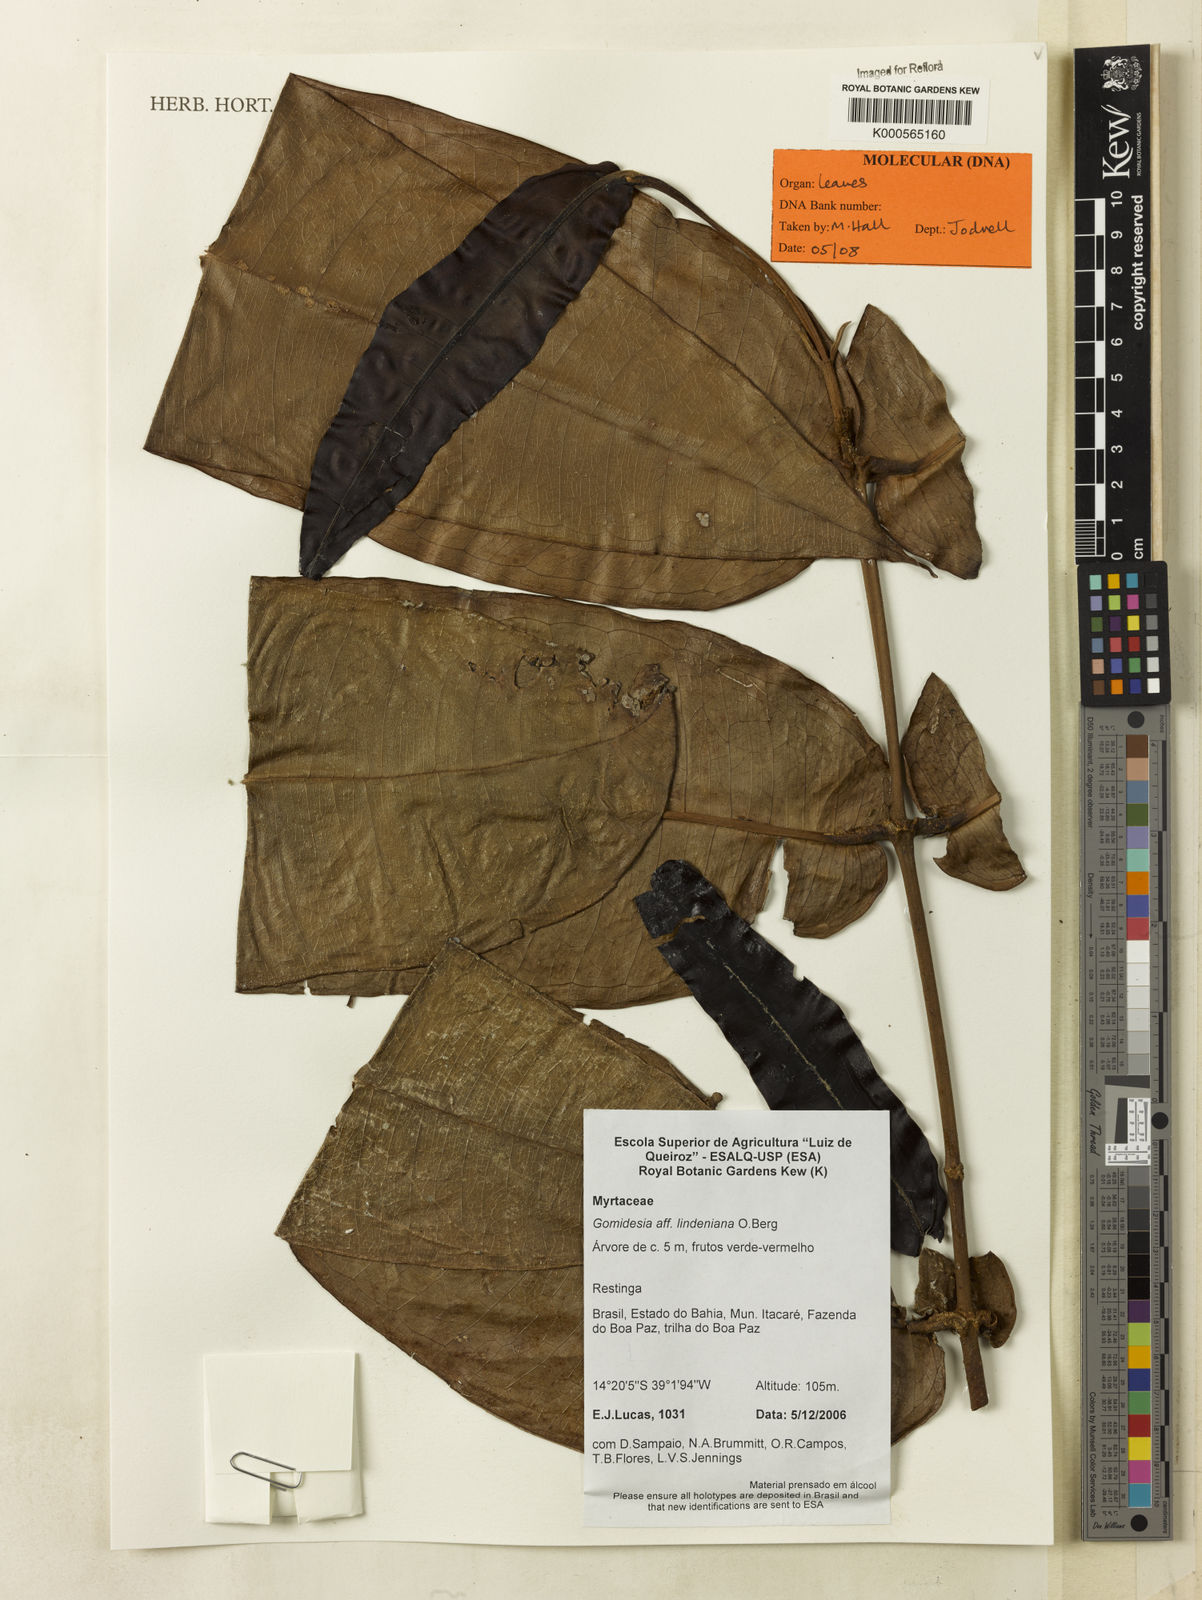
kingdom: Plantae
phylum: Tracheophyta
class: Magnoliopsida
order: Myrtales
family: Myrtaceae
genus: Myrcia
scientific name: Myrcia fenzliana
